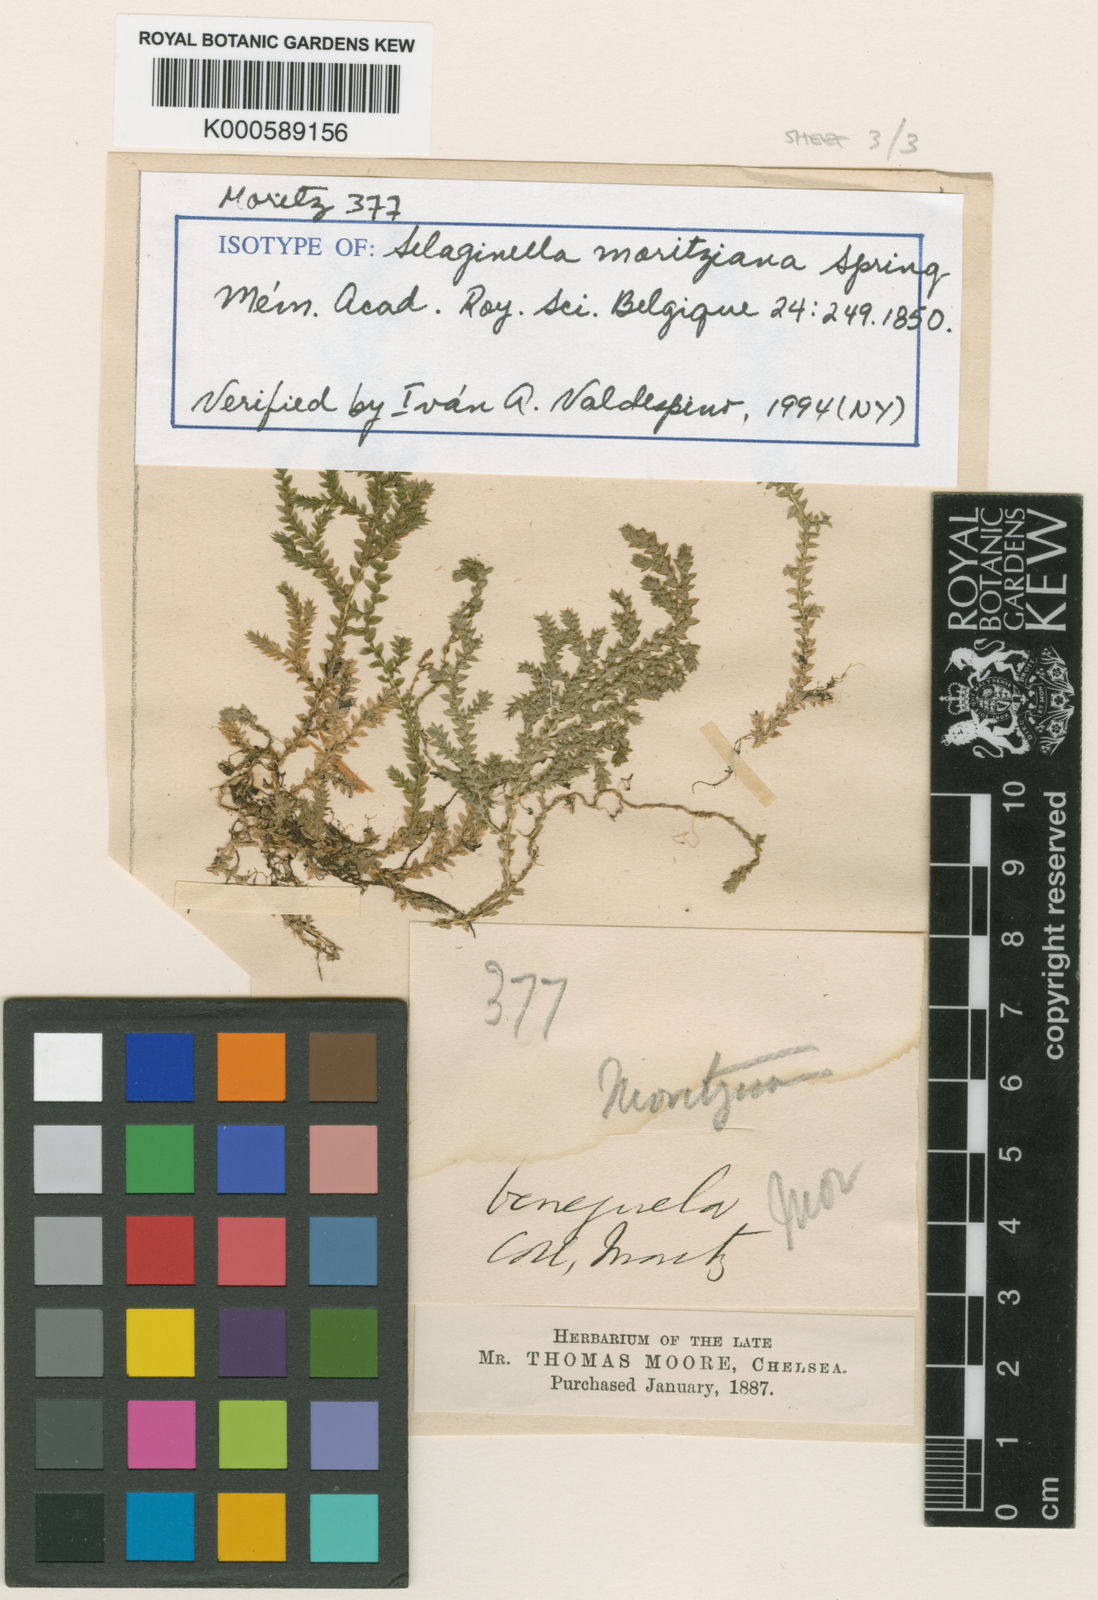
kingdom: Plantae
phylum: Tracheophyta
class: Lycopodiopsida
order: Selaginellales
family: Selaginellaceae
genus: Selaginella
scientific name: Selaginella
